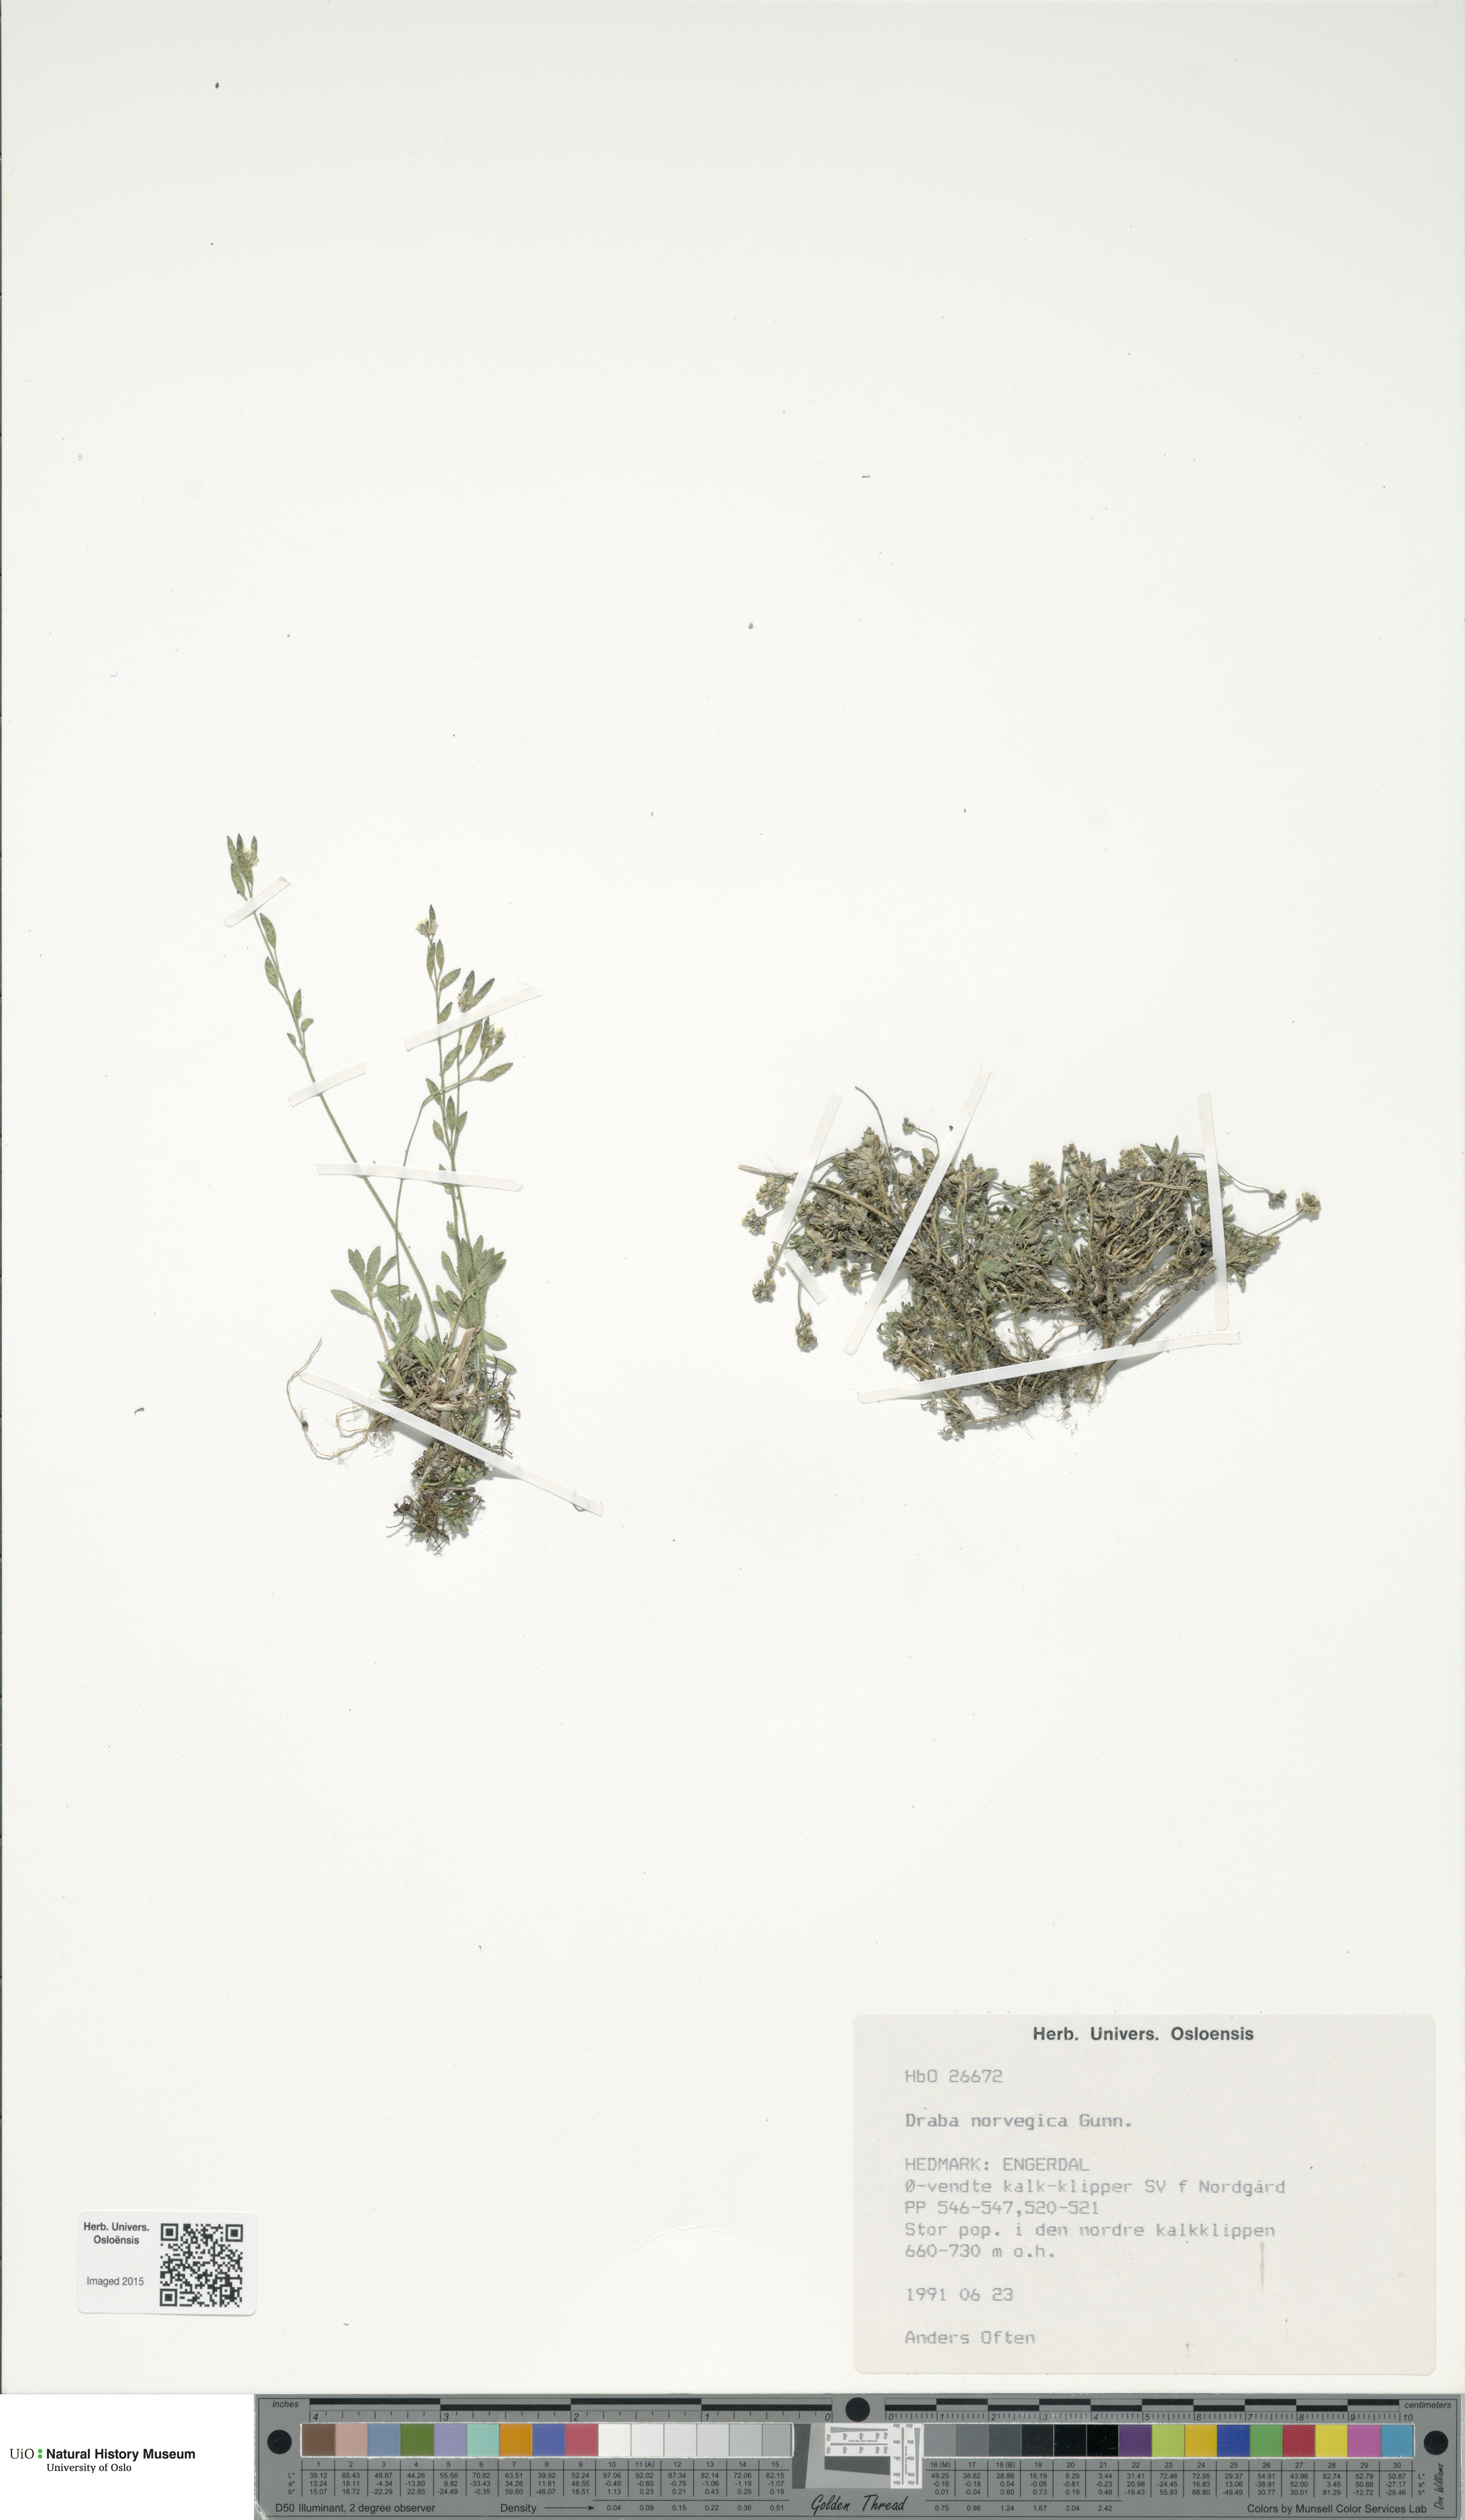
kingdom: Plantae
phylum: Tracheophyta
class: Magnoliopsida
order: Brassicales
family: Brassicaceae
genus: Draba
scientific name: Draba norvegica
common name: Rock whitlowgrass
